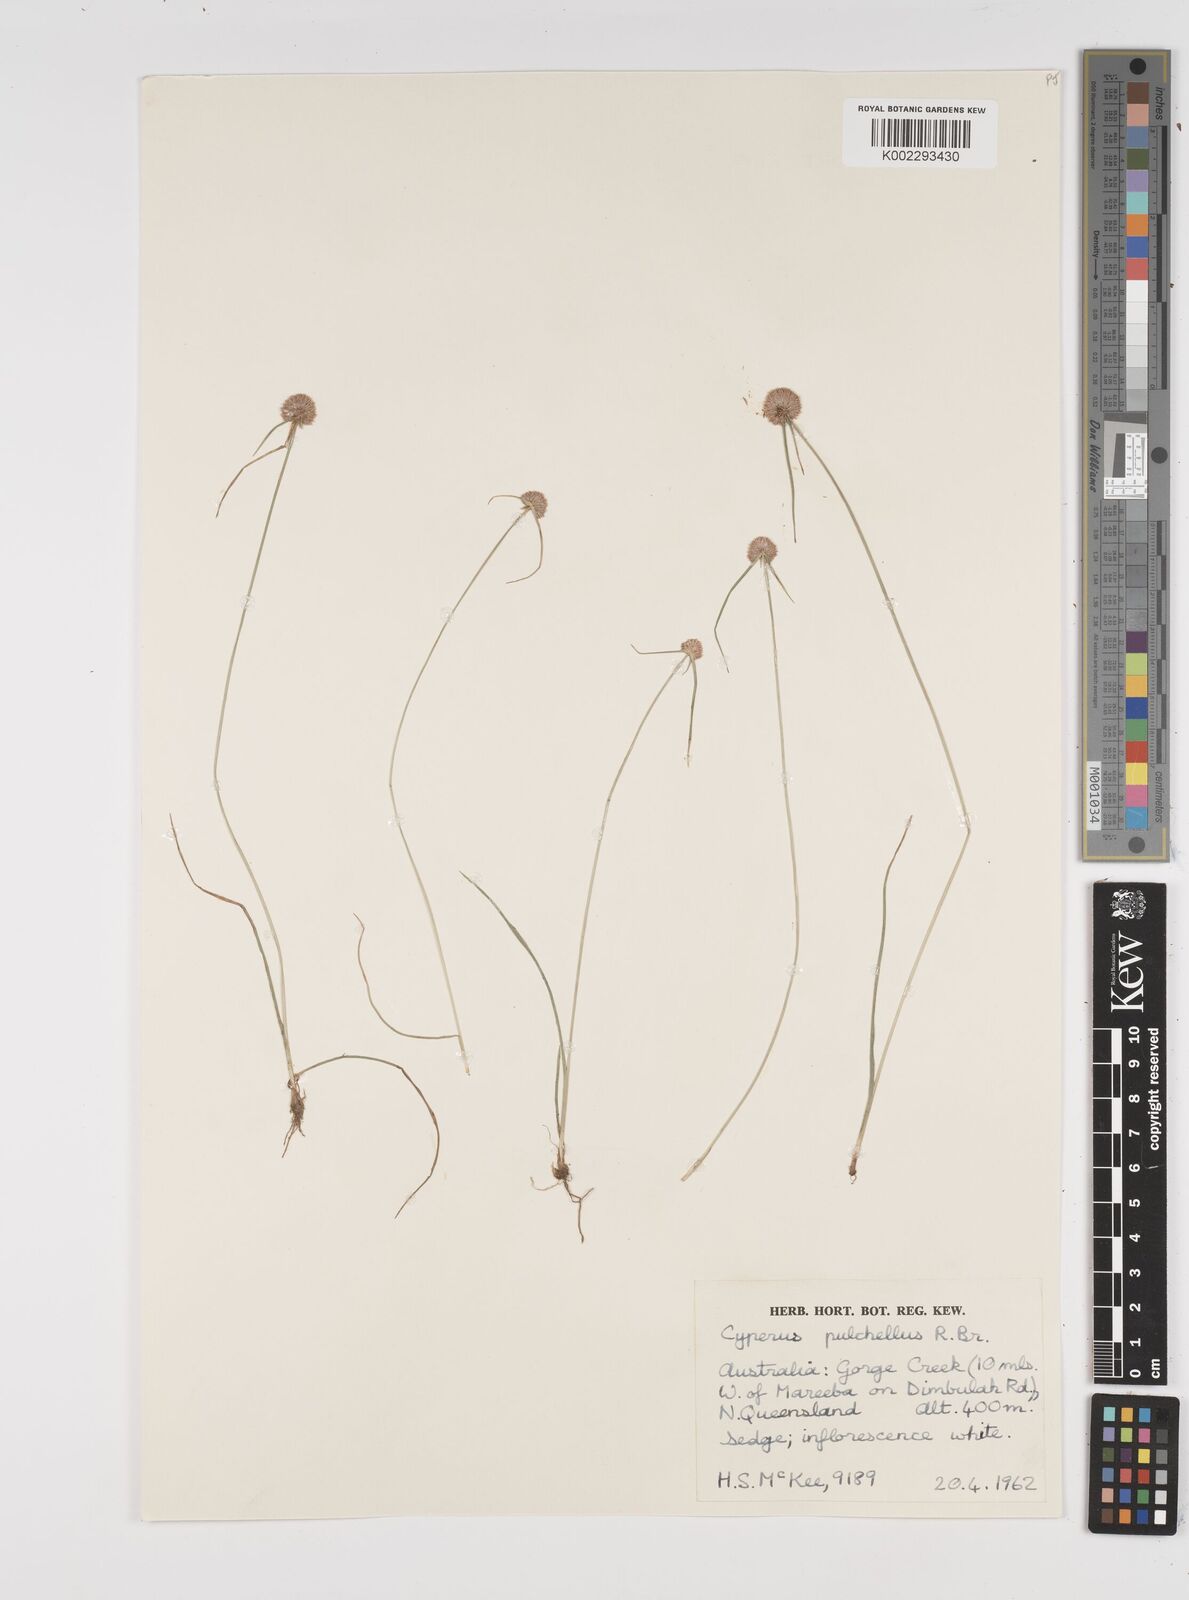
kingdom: Plantae
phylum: Tracheophyta
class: Liliopsida
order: Poales
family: Cyperaceae
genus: Cyperus
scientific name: Cyperus pulchellus
